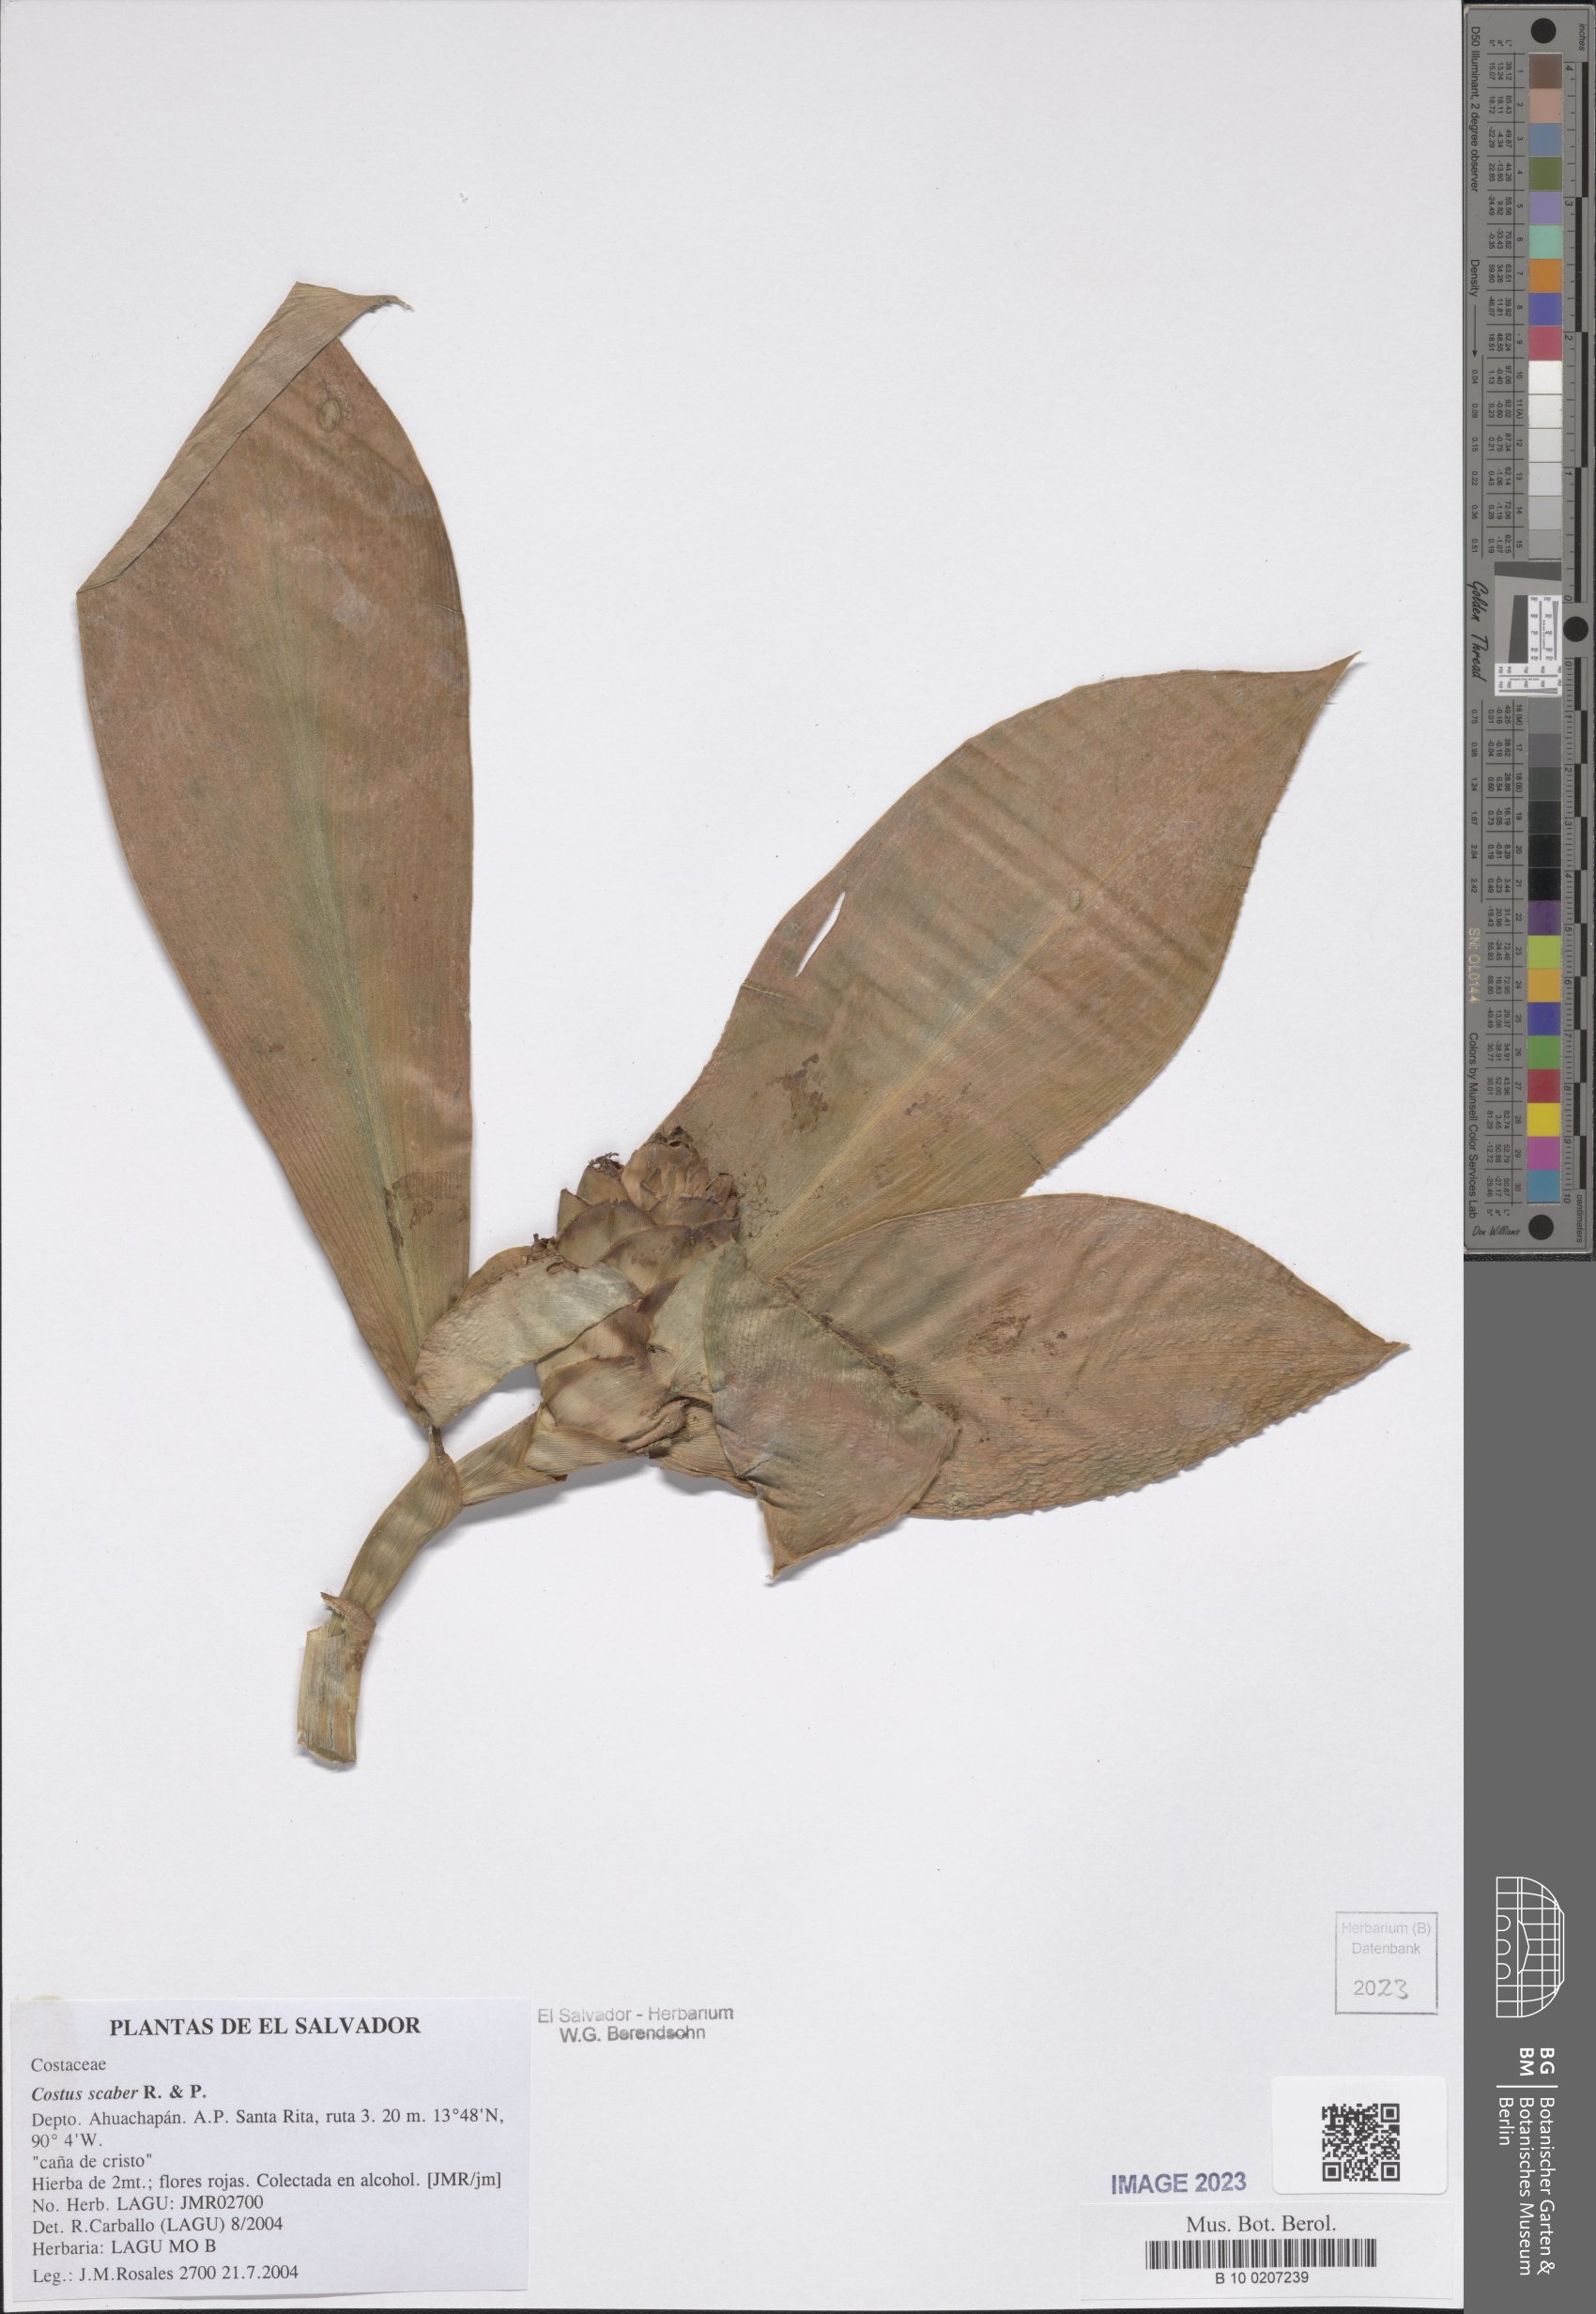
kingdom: Plantae
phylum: Tracheophyta
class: Liliopsida
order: Zingiberales
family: Costaceae
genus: Costus
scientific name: Costus scaber
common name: Spiral head ginger
